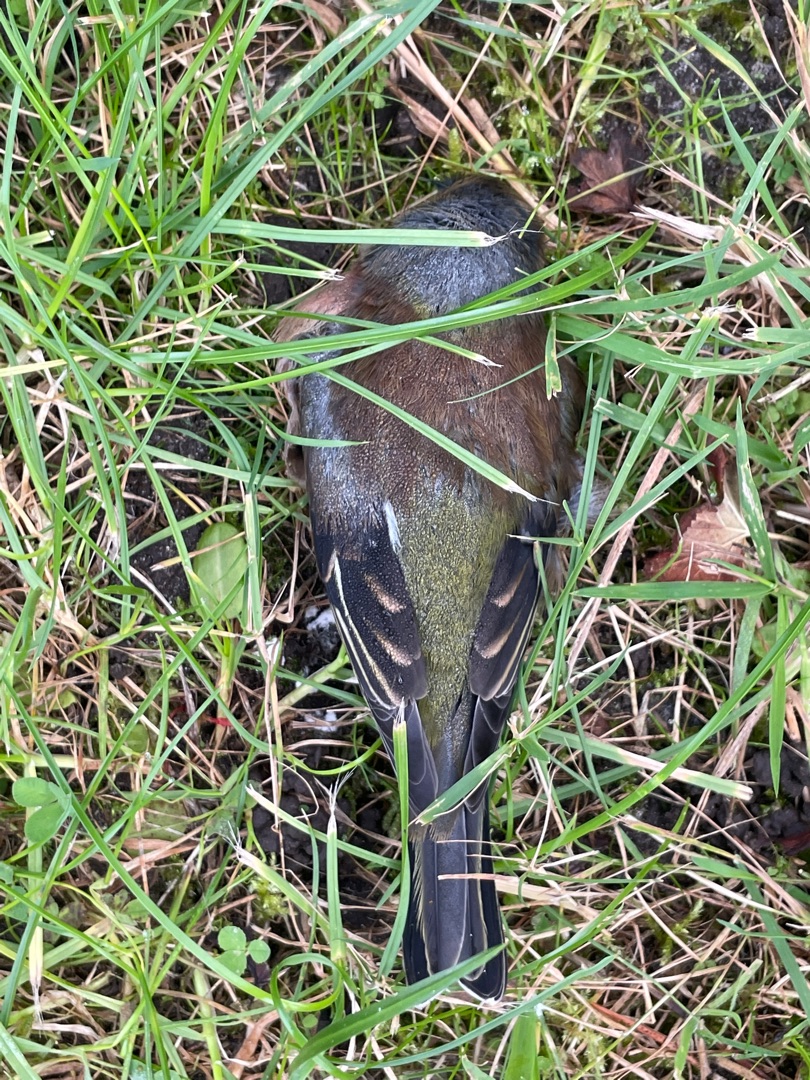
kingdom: Animalia
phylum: Chordata
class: Aves
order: Passeriformes
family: Fringillidae
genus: Fringilla
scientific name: Fringilla coelebs
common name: Bogfinke
